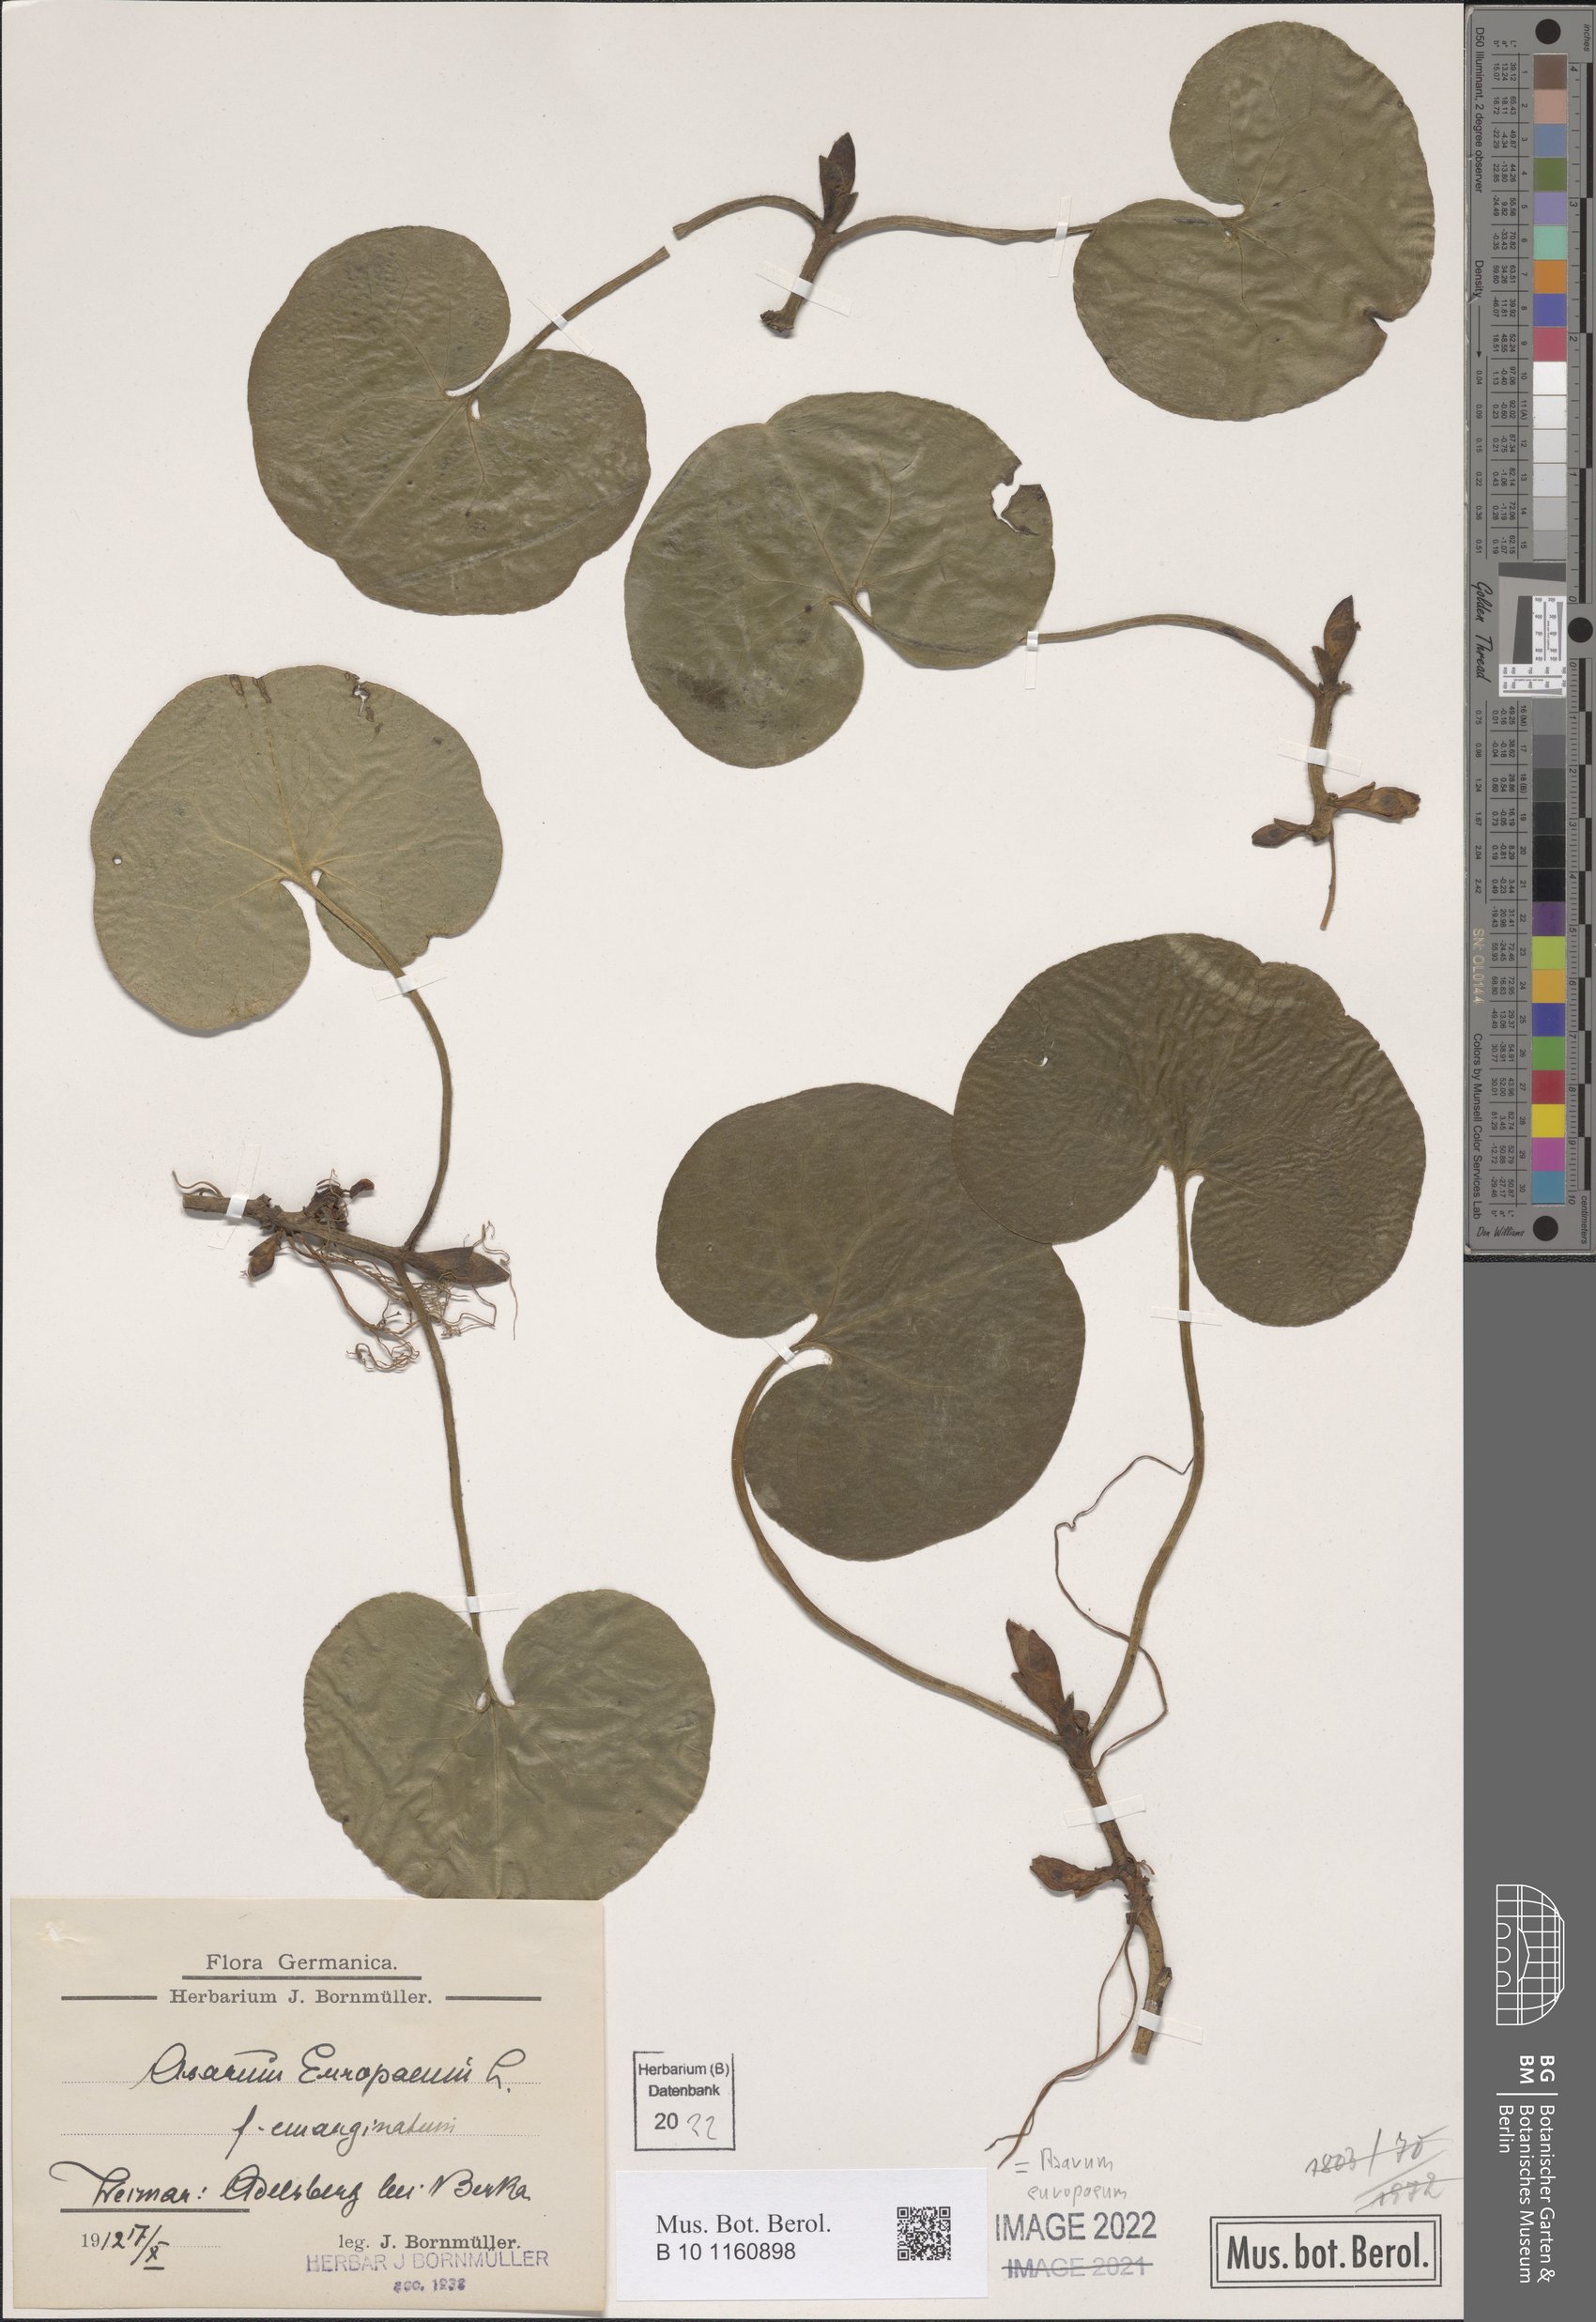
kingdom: Plantae
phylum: Tracheophyta
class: Magnoliopsida
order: Piperales
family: Aristolochiaceae
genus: Asarum
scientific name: Asarum europaeum
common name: Asarabacca
